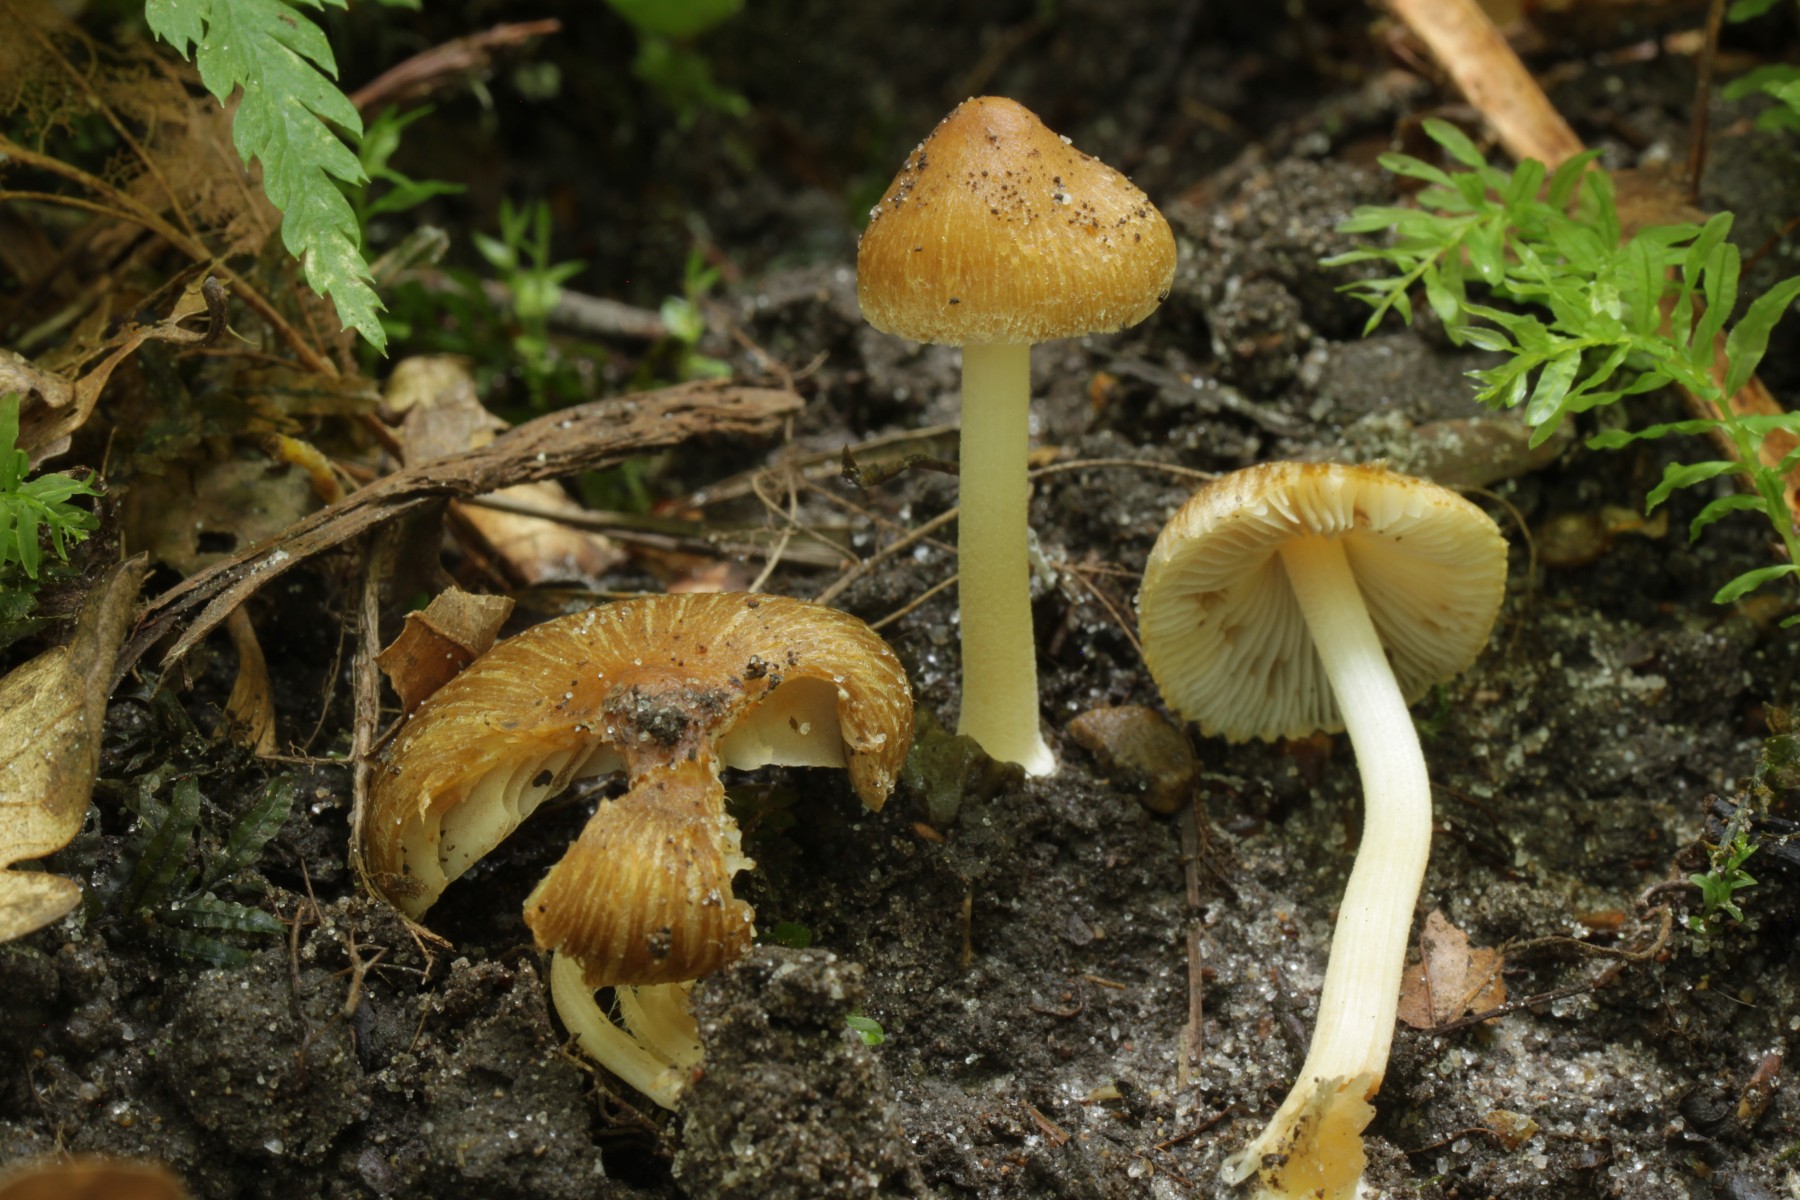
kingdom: Fungi
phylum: Basidiomycota
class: Agaricomycetes
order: Agaricales
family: Inocybaceae
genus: Inocybe
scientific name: Inocybe salicis
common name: pile-trævlhat
